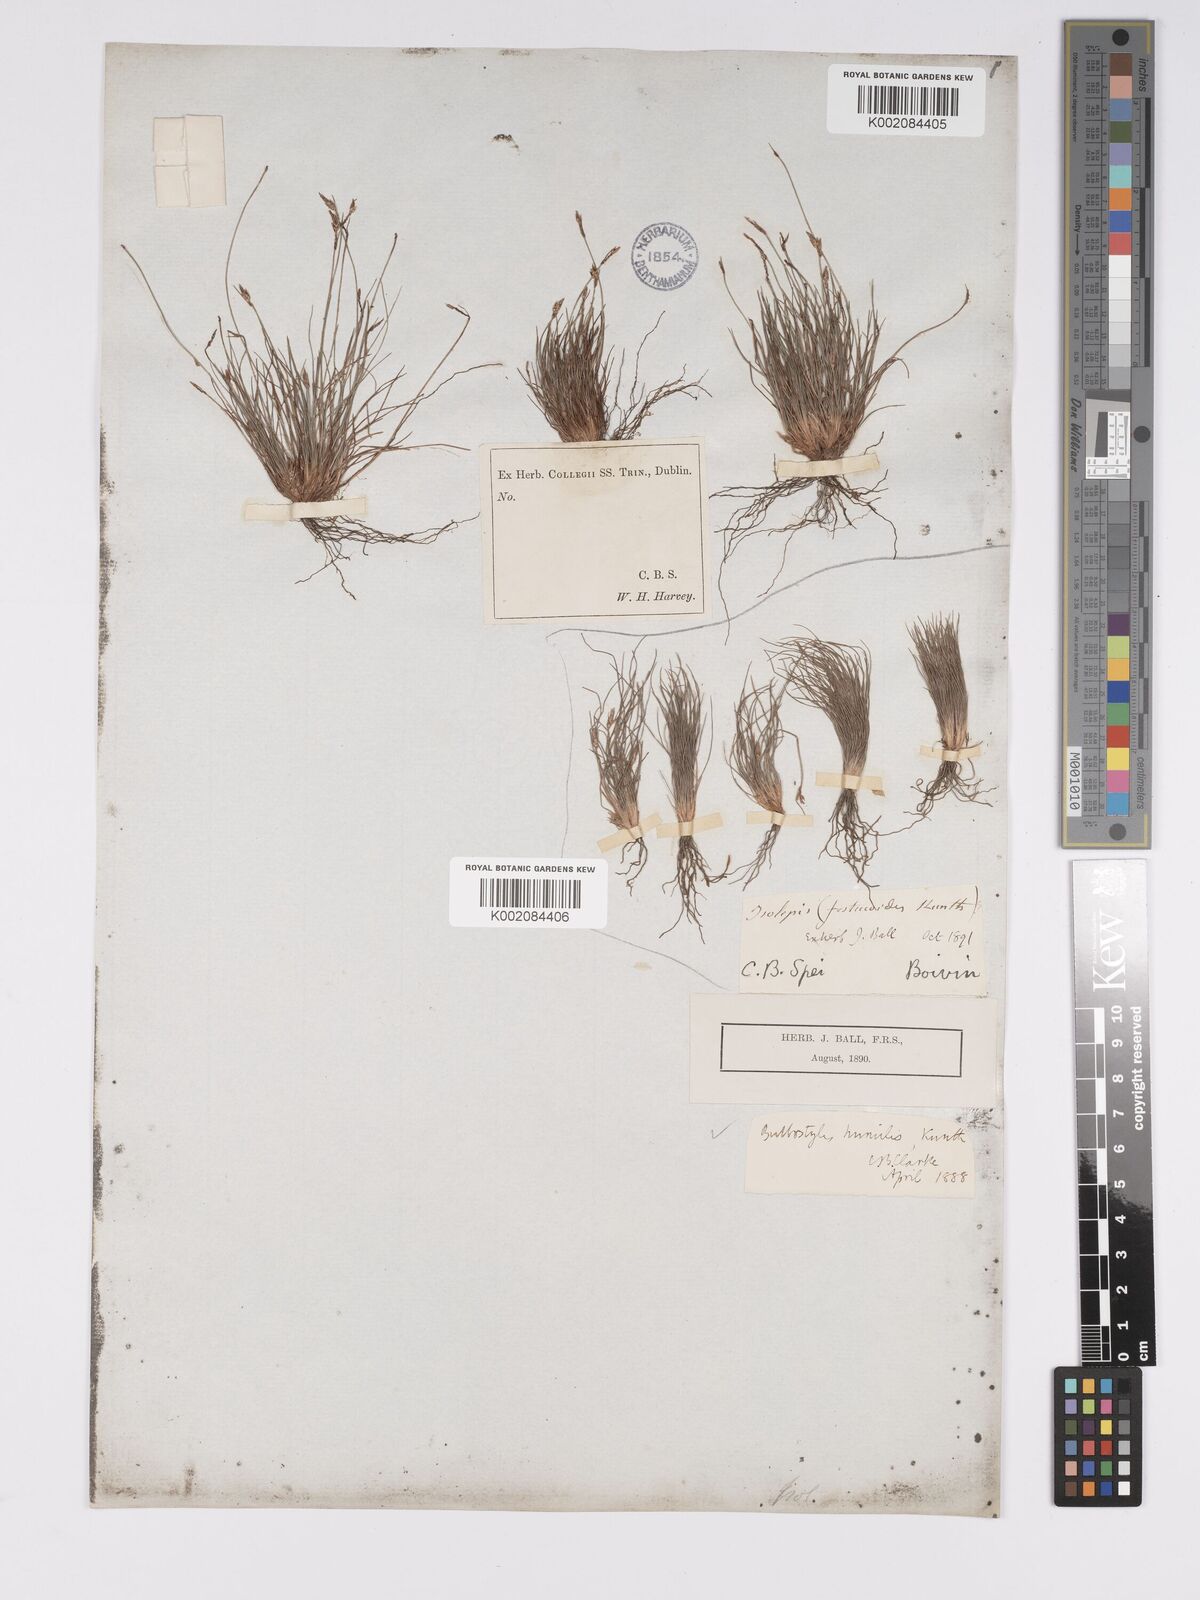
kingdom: Plantae
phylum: Tracheophyta
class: Liliopsida
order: Poales
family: Cyperaceae
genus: Bulbostylis
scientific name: Bulbostylis humilis
